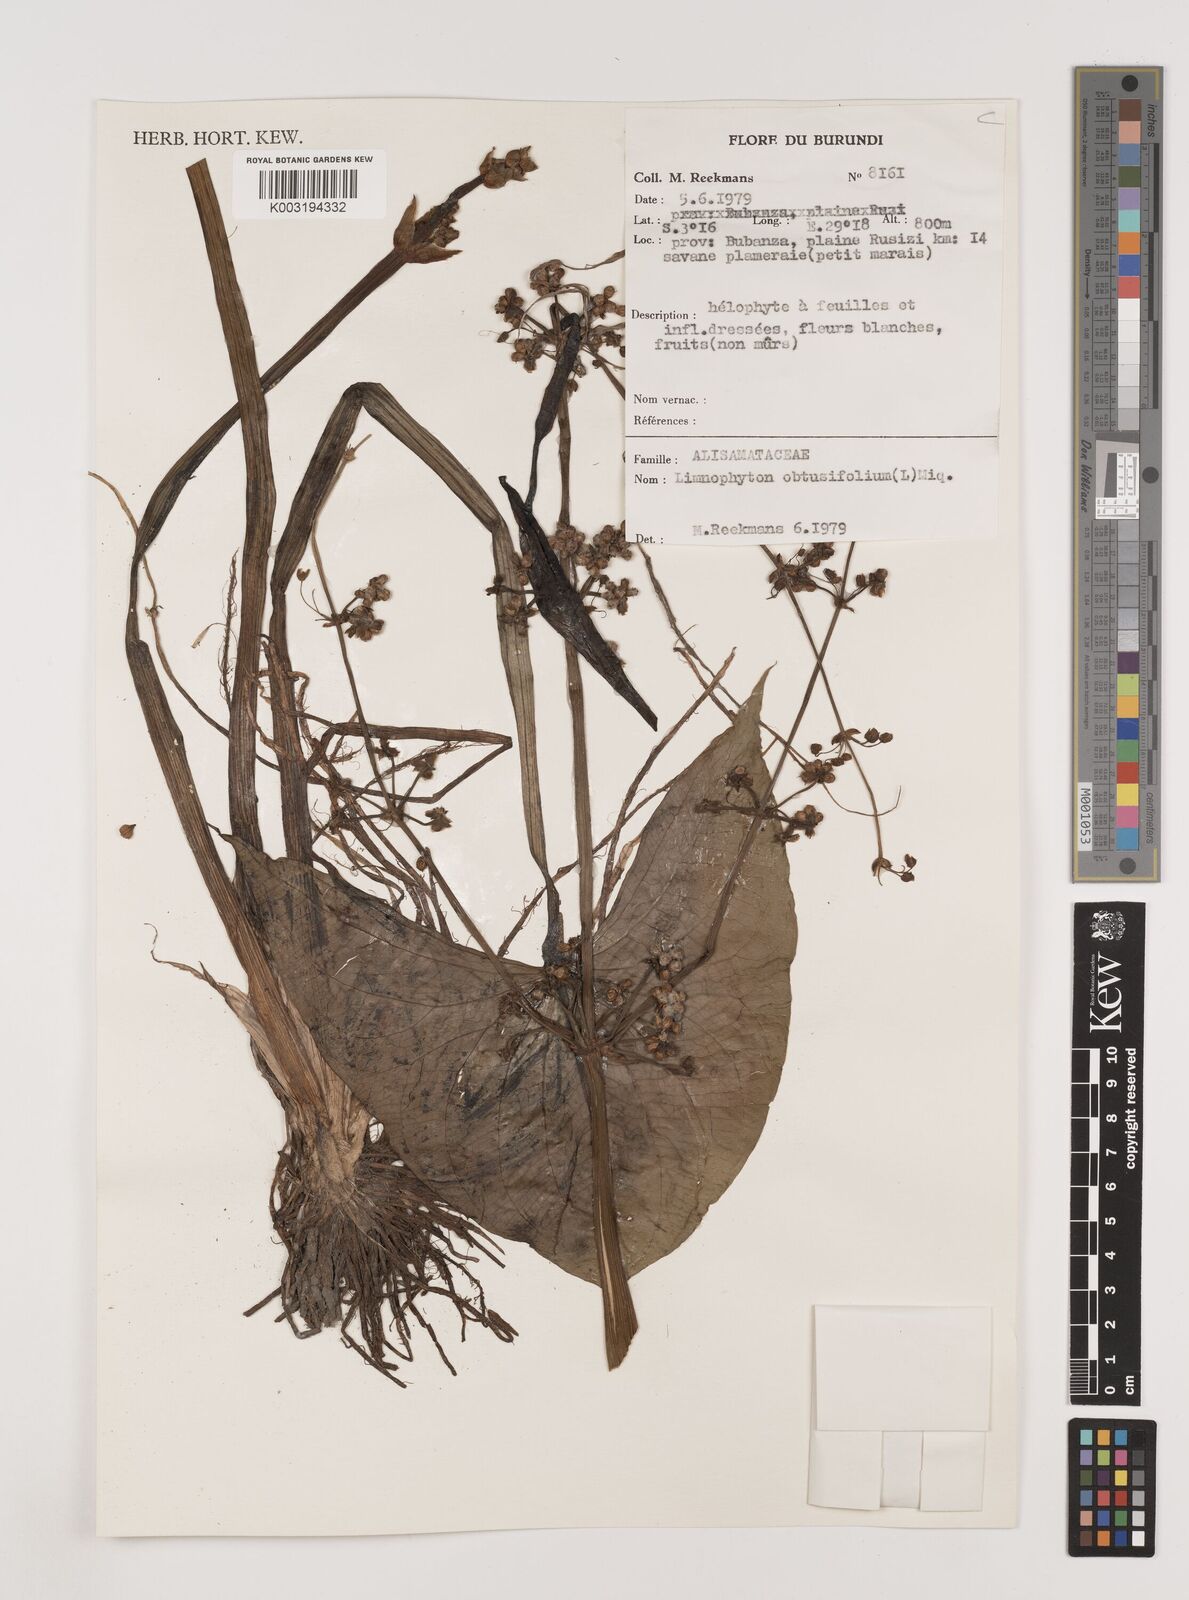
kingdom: Plantae
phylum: Tracheophyta
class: Liliopsida
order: Alismatales
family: Alismataceae
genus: Limnophyton
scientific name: Limnophyton obtusifolium
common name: Arrow head
